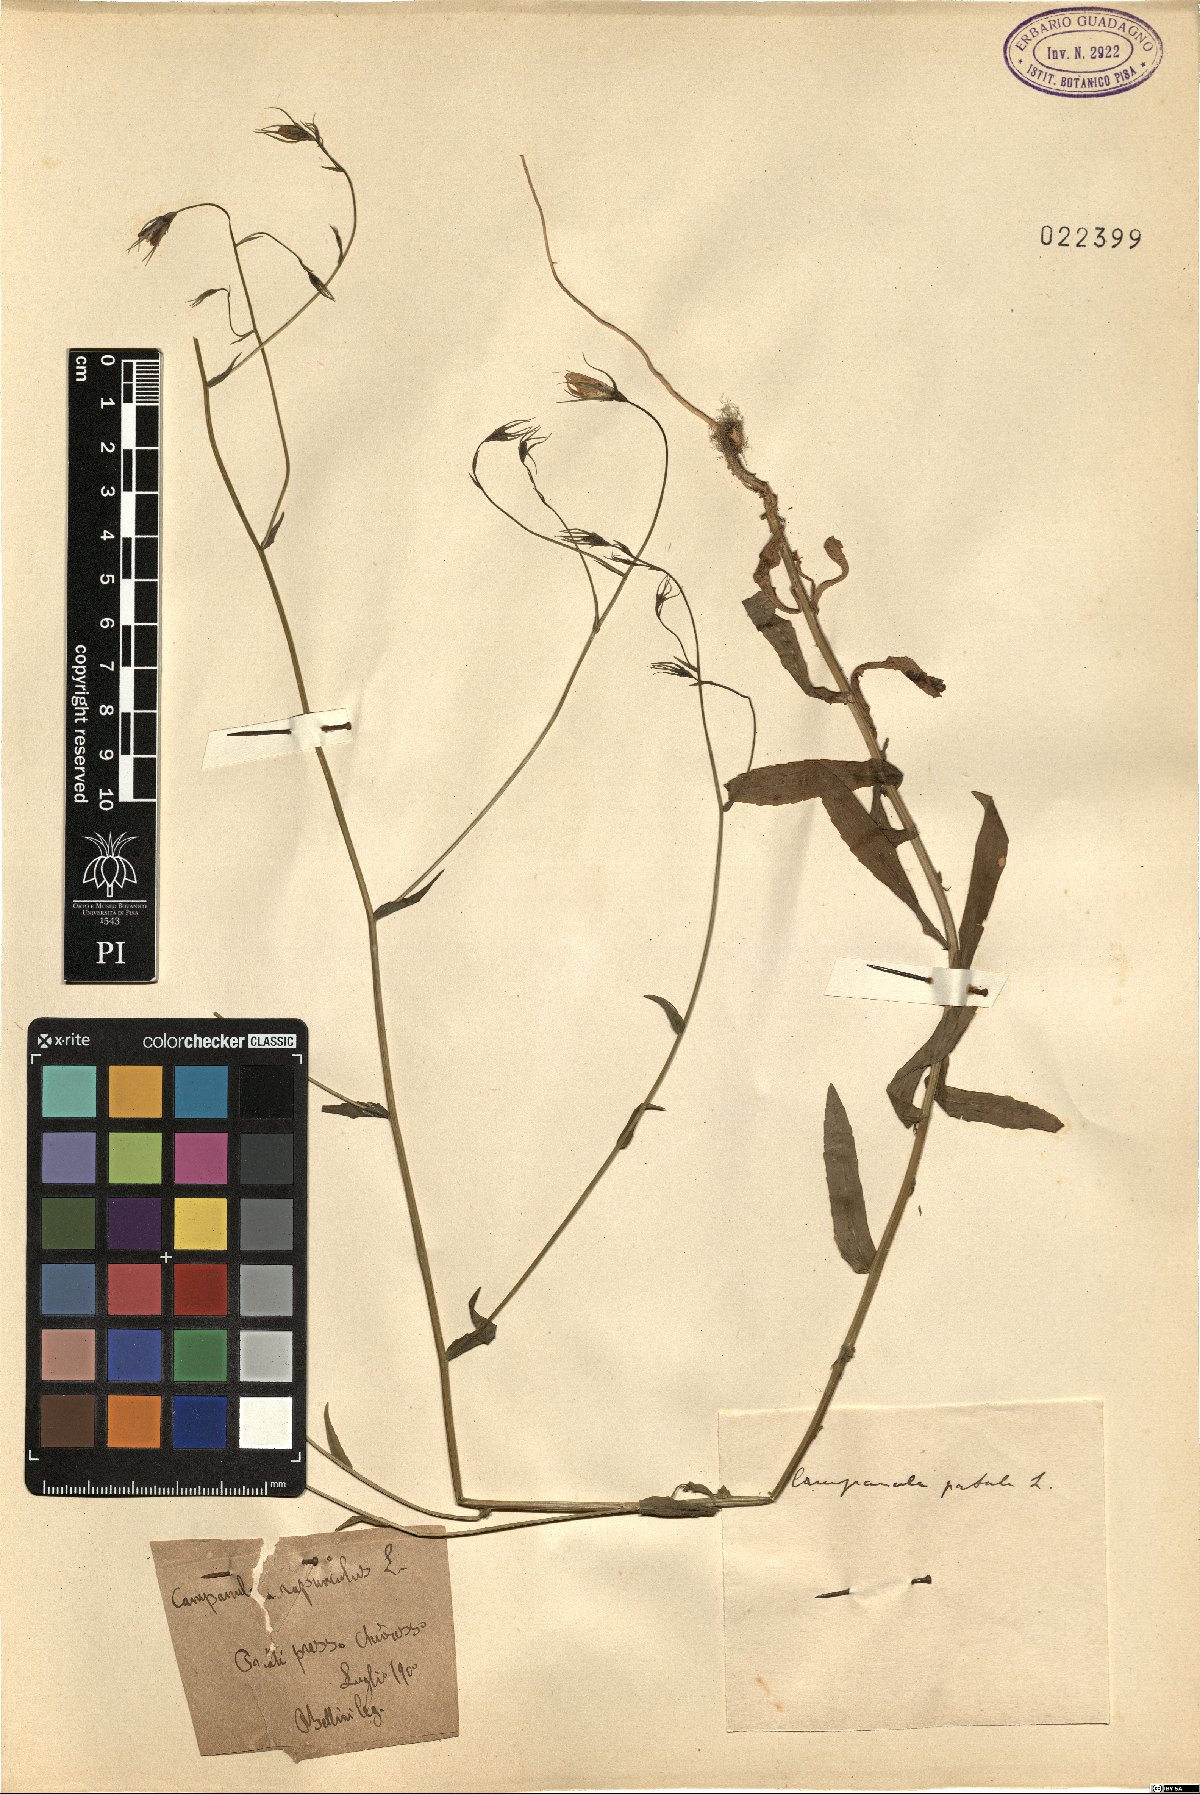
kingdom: Plantae
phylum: Tracheophyta
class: Magnoliopsida
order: Asterales
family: Campanulaceae
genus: Campanula
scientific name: Campanula patula
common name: Spreading bellflower
